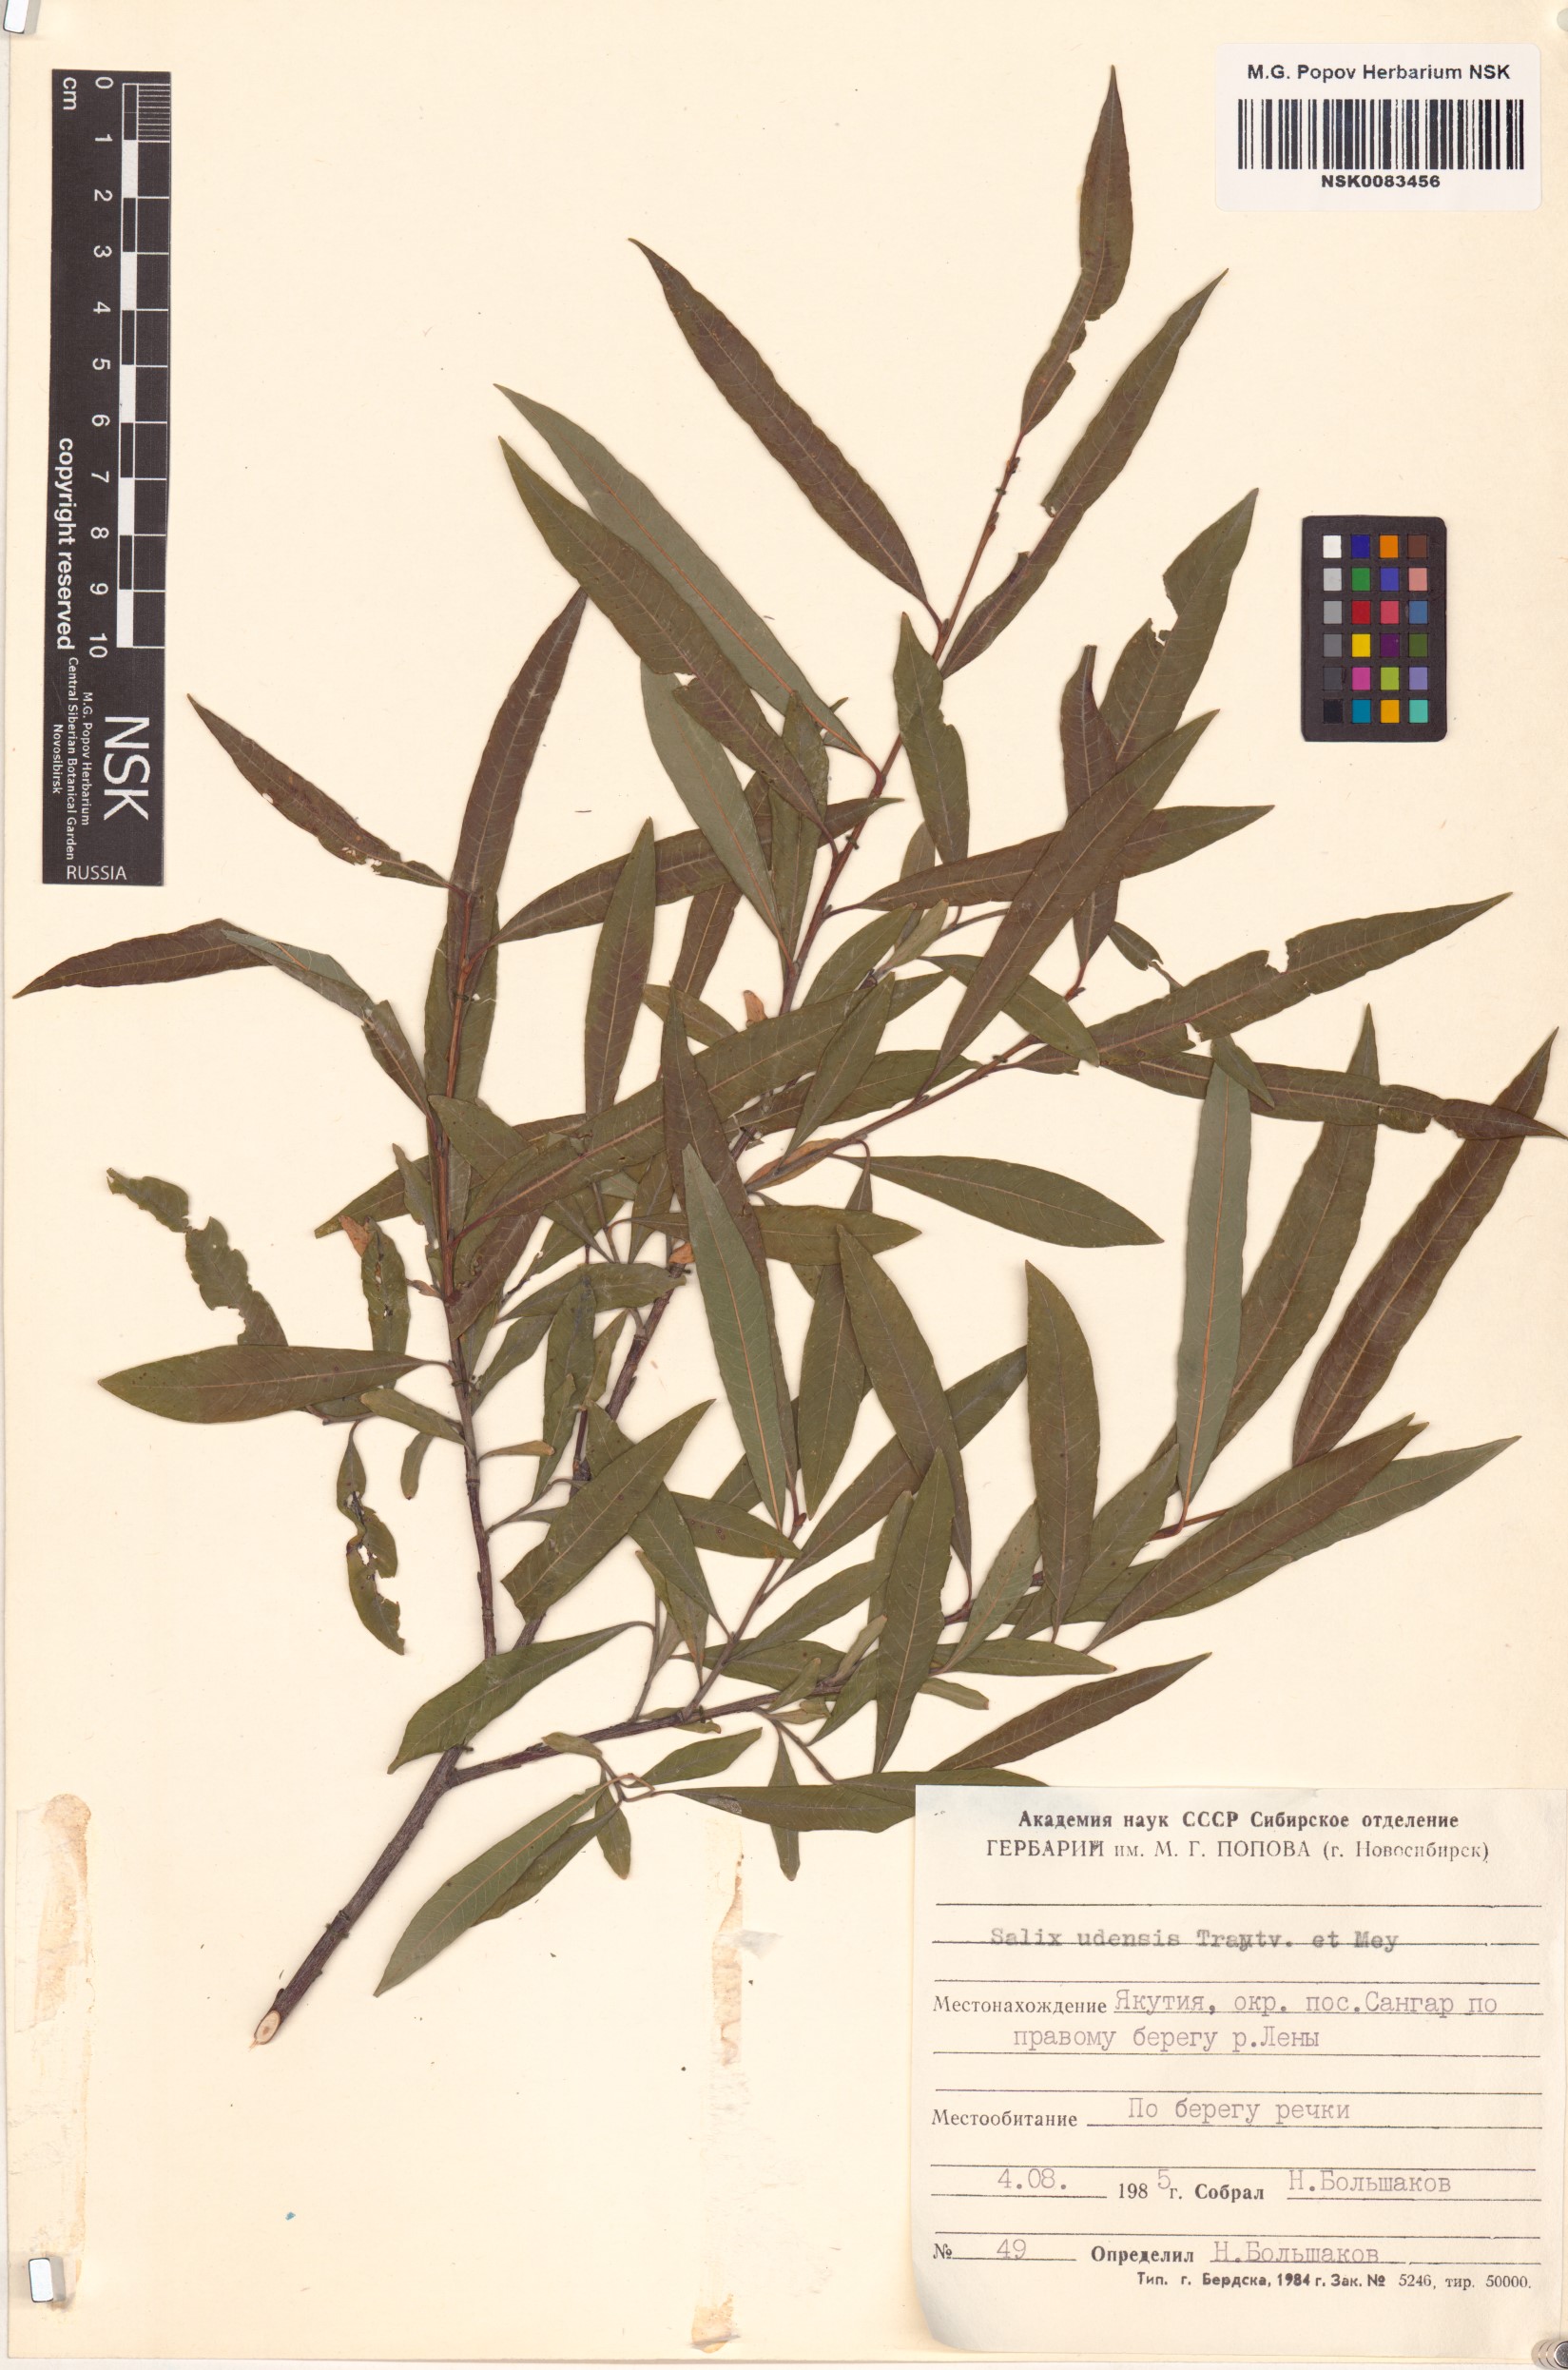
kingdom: Plantae
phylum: Tracheophyta
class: Magnoliopsida
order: Malpighiales
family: Salicaceae
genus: Salix
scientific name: Salix udensis
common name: Sachalin willow
